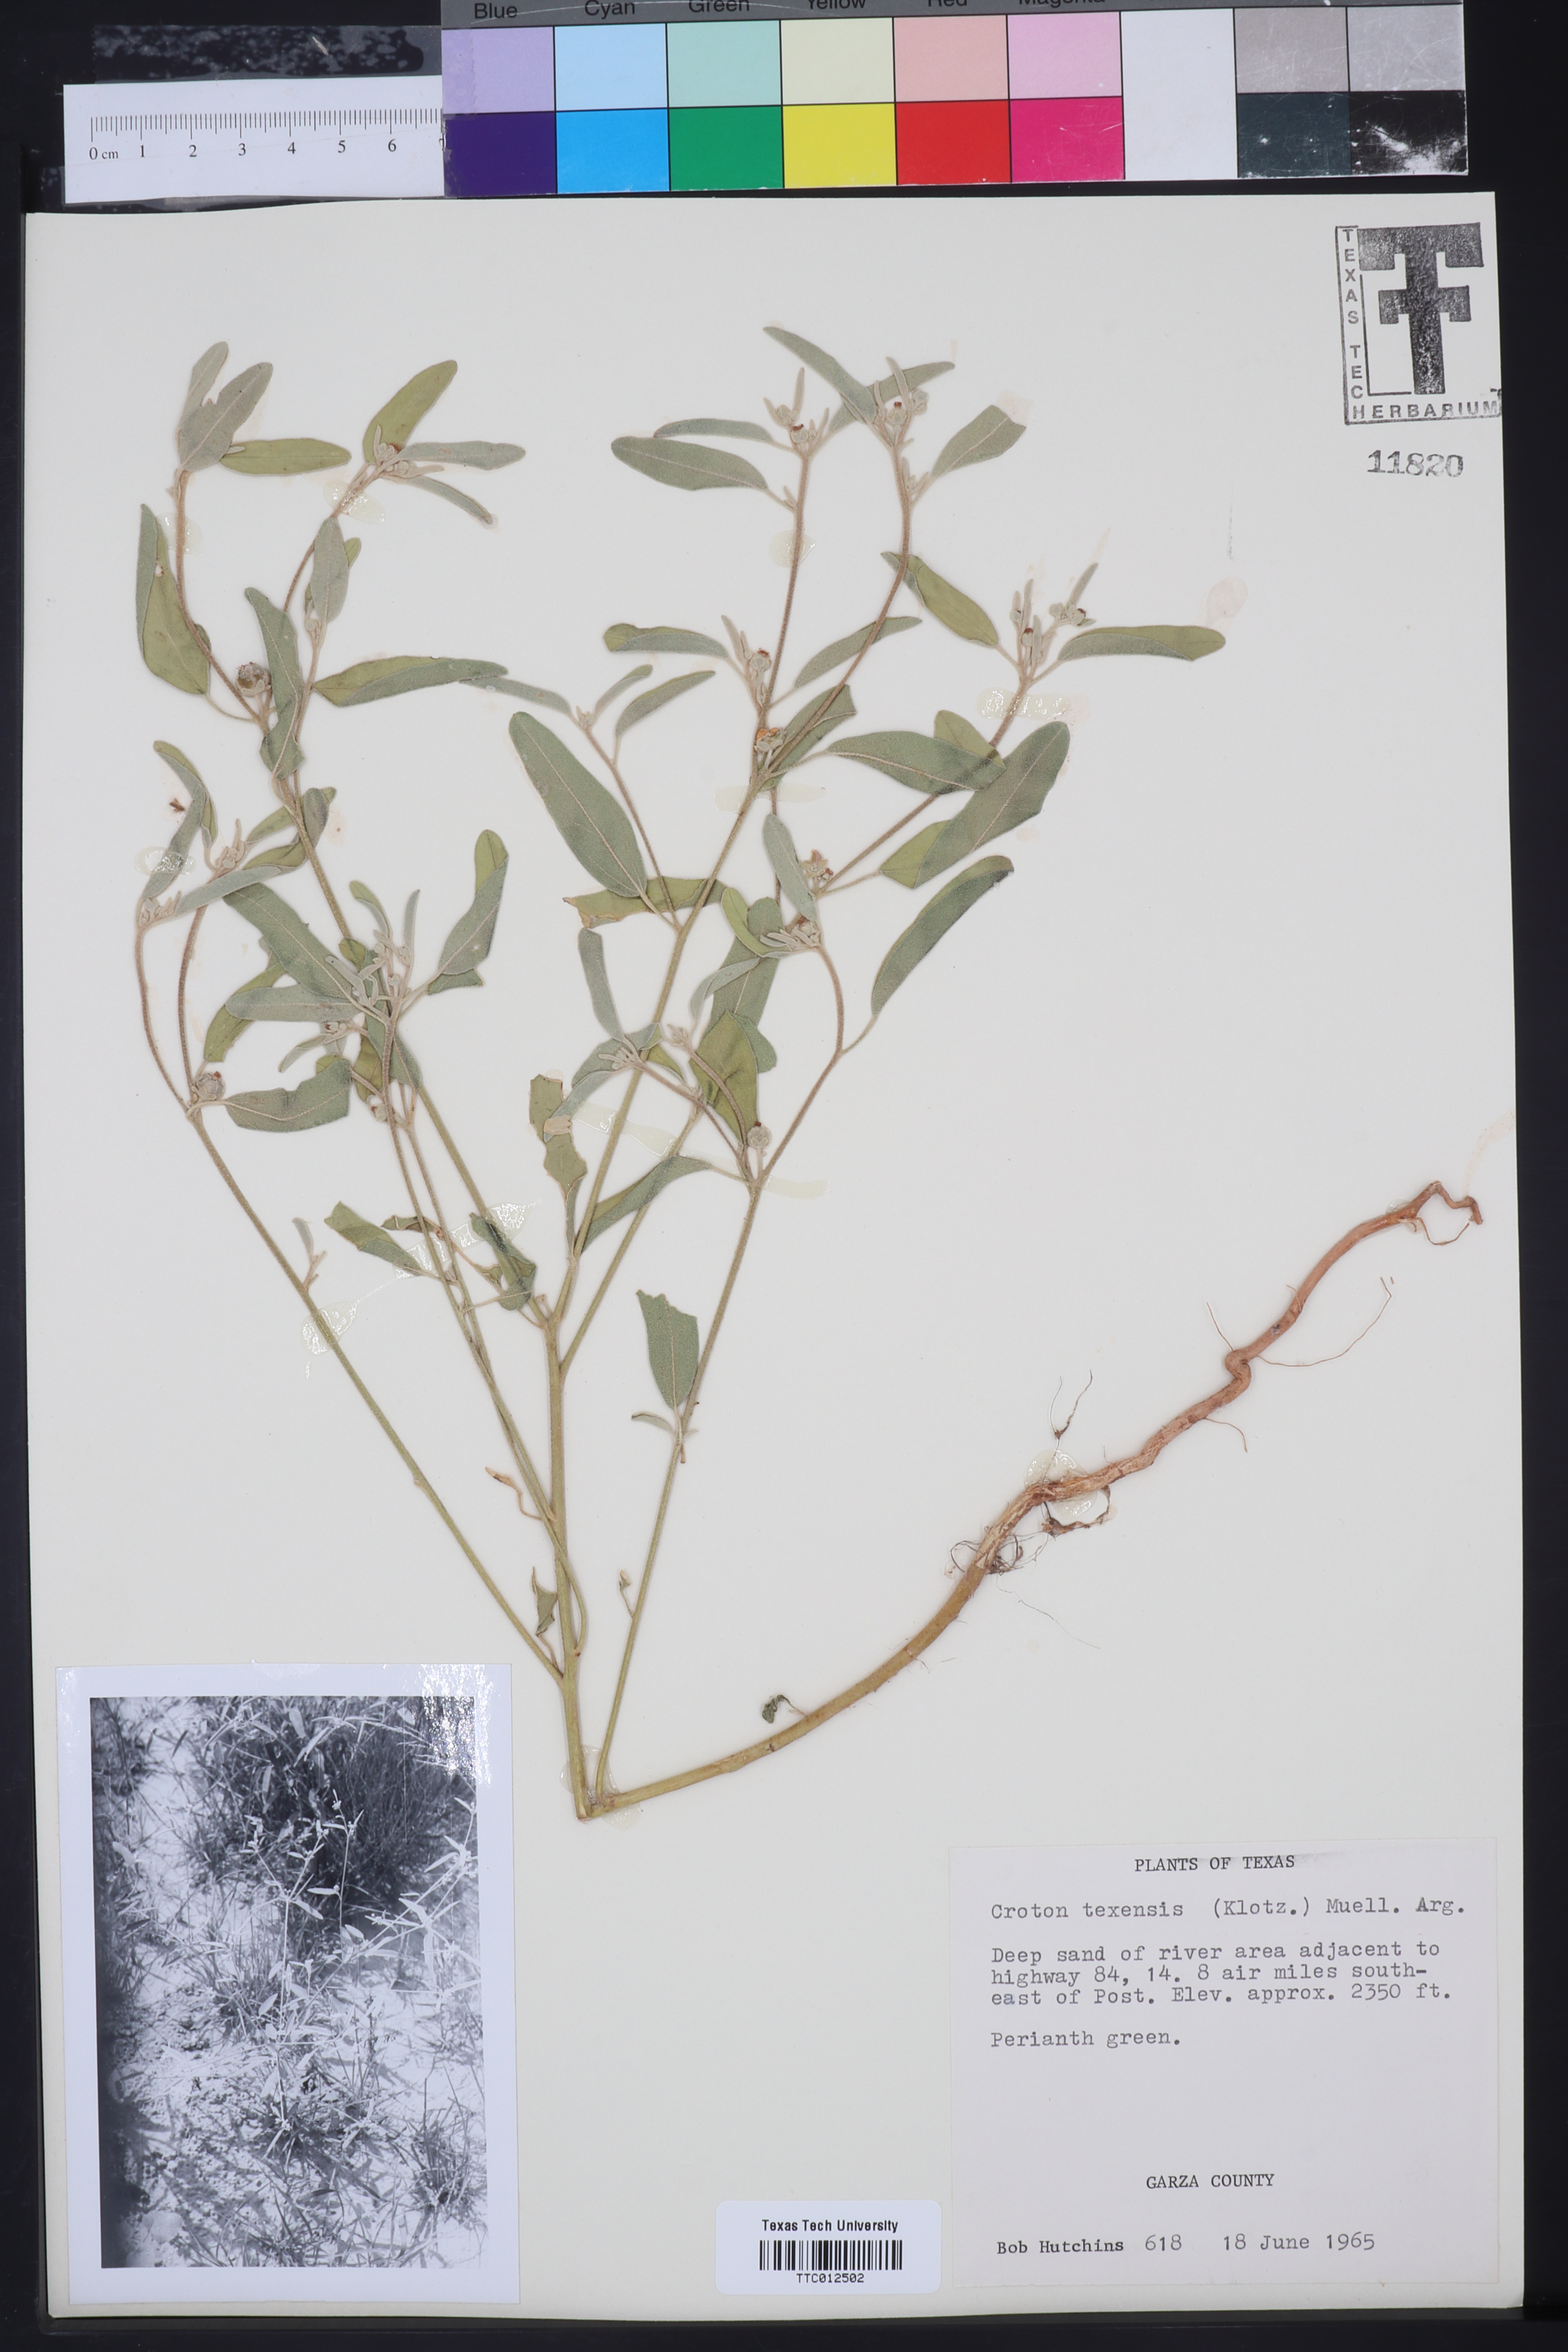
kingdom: Plantae
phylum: Tracheophyta
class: Magnoliopsida
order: Malpighiales
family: Euphorbiaceae
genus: Croton
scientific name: Croton texensis
